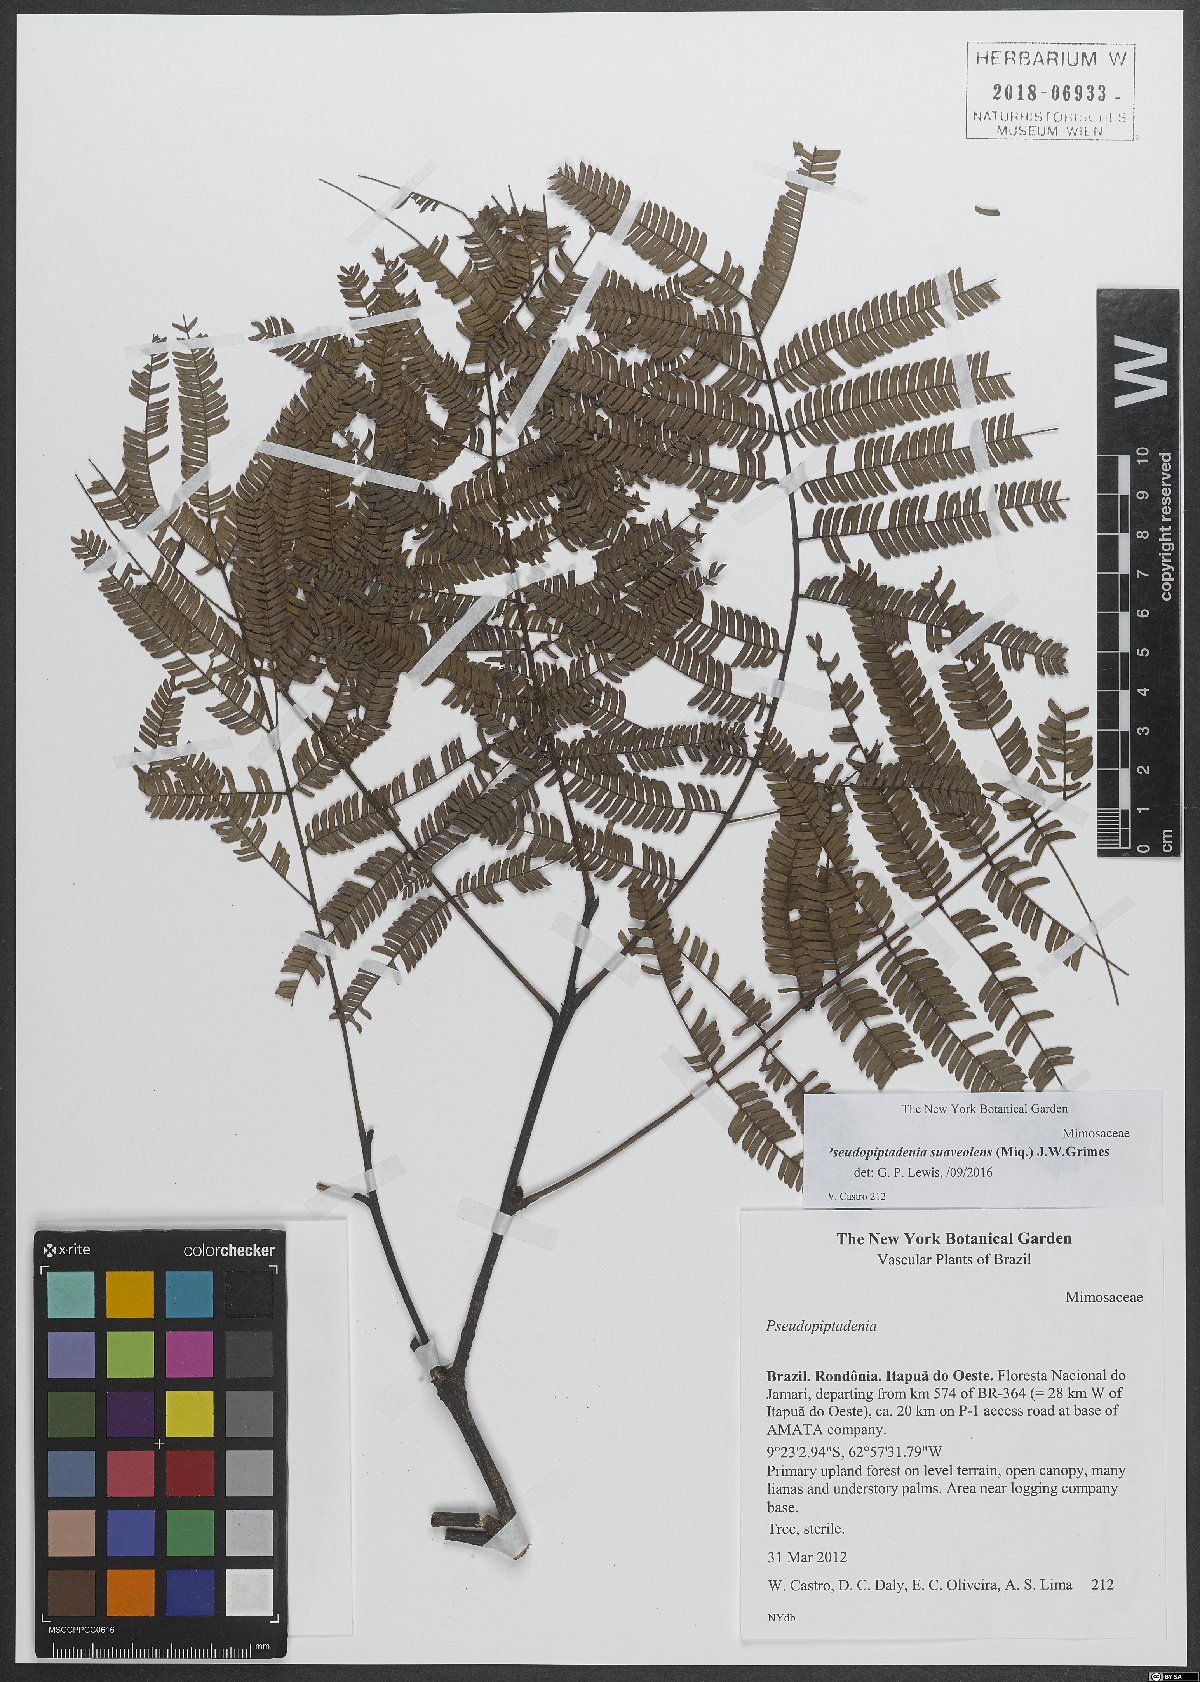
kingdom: Plantae
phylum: Tracheophyta
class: Magnoliopsida
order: Fabales
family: Fabaceae
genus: Pseudopiptadenia
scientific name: Pseudopiptadenia suaveolens
